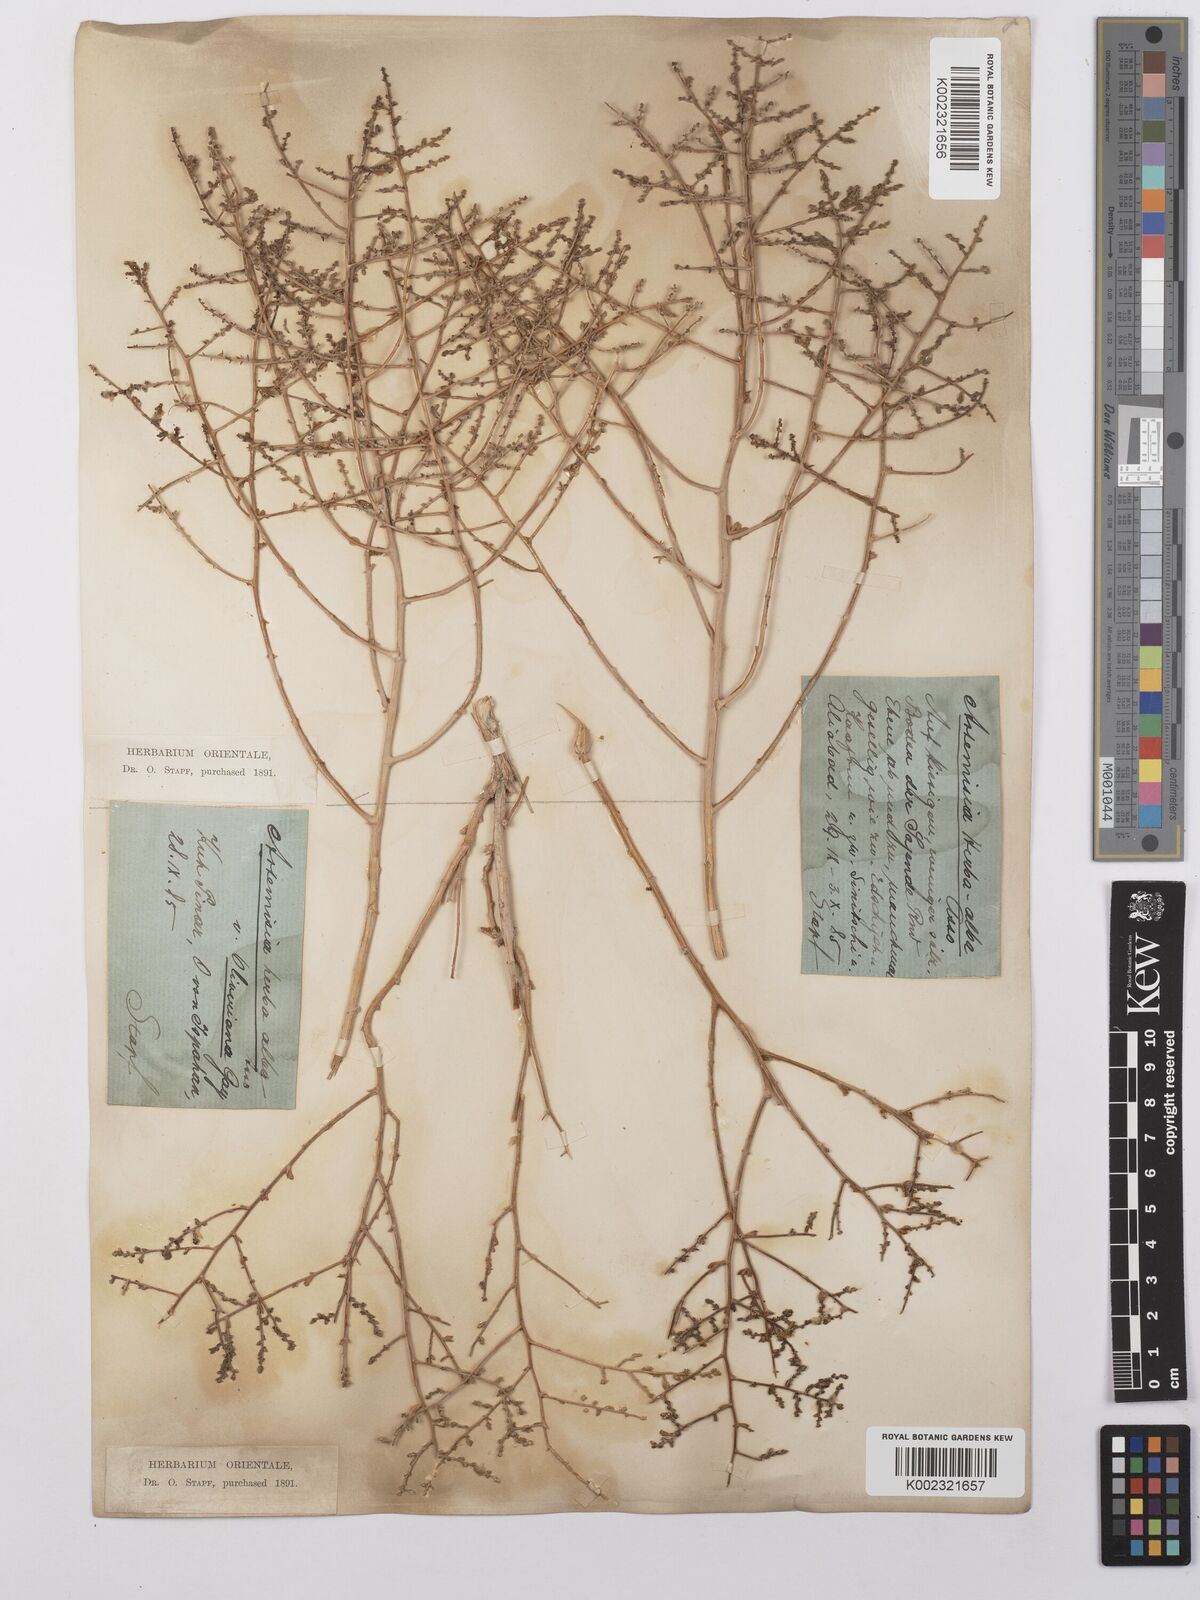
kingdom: Plantae
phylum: Tracheophyta
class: Magnoliopsida
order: Asterales
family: Asteraceae
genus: Artemisia
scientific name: Artemisia herba-alba
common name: White wormwood
